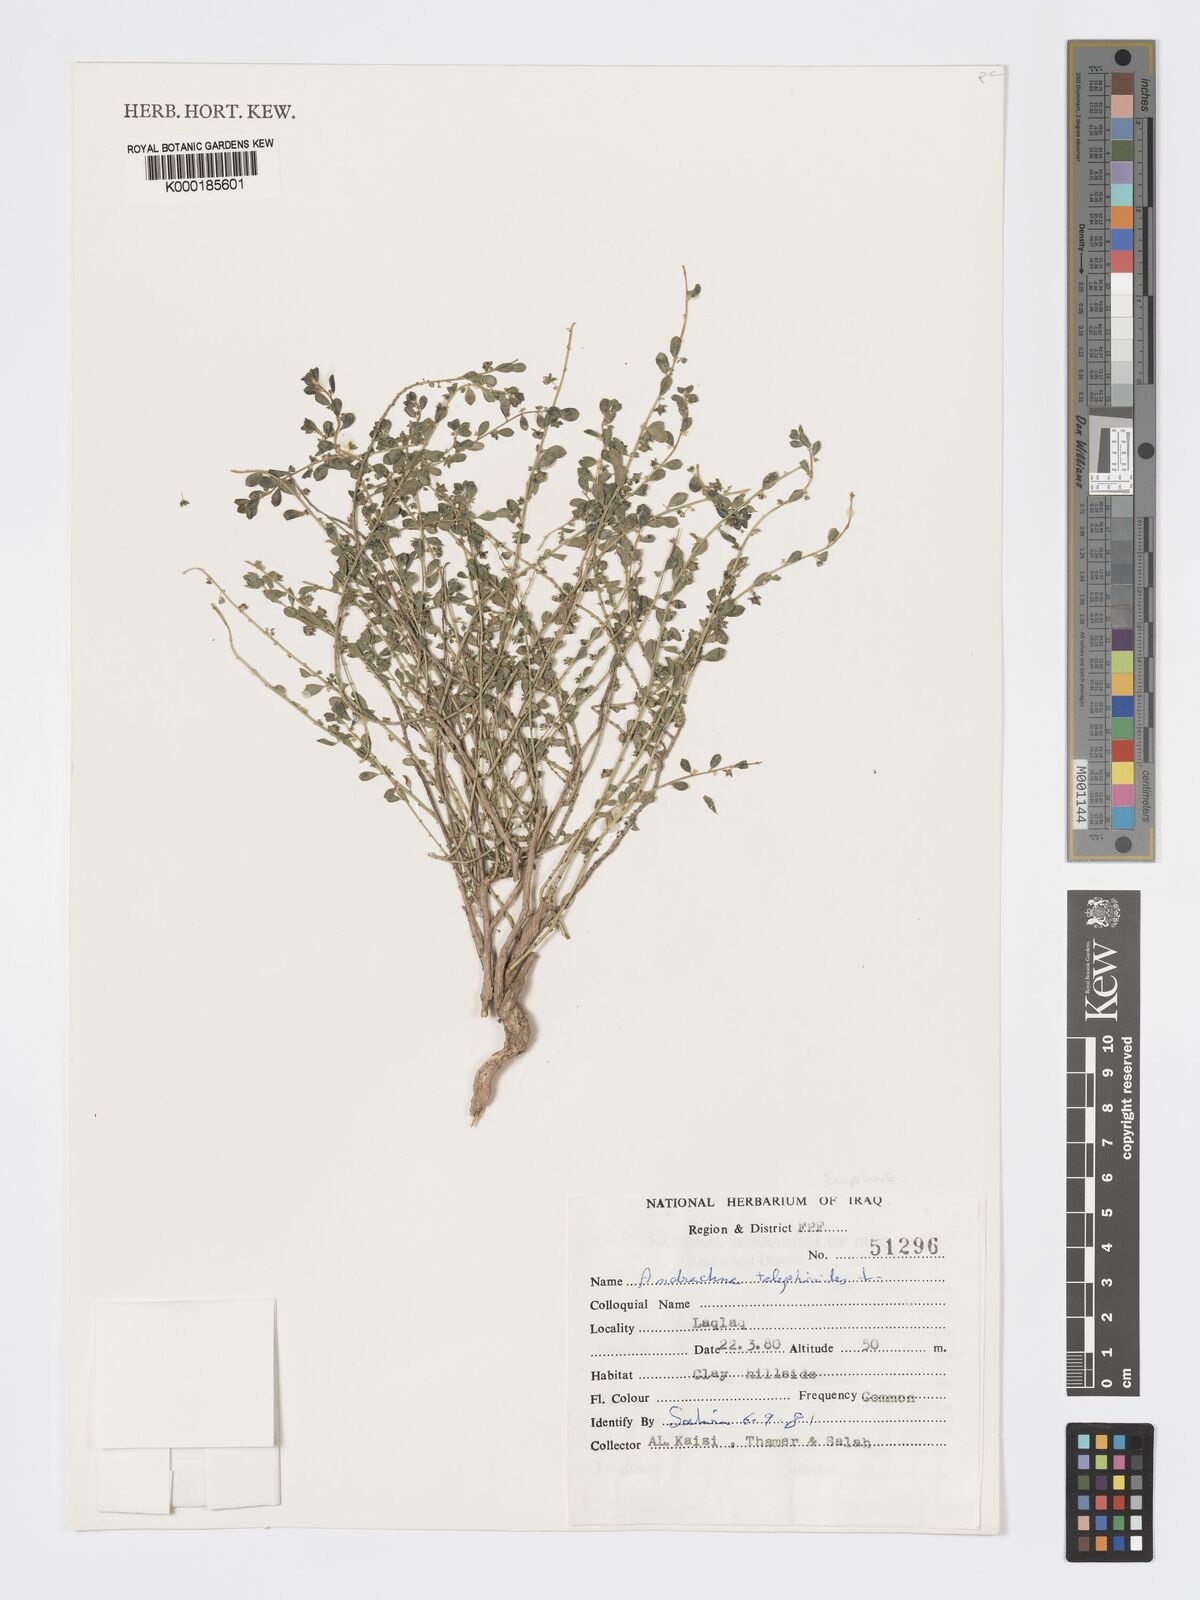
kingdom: Plantae
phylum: Tracheophyta
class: Magnoliopsida
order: Malpighiales
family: Phyllanthaceae
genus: Andrachne
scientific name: Andrachne telephioides
